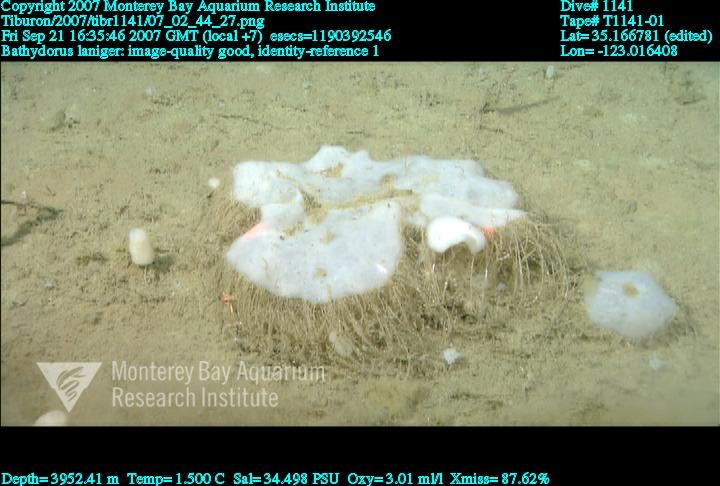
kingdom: Animalia
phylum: Porifera
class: Hexactinellida
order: Lyssacinosida
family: Rossellidae
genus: Bathydorus
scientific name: Bathydorus laniger
